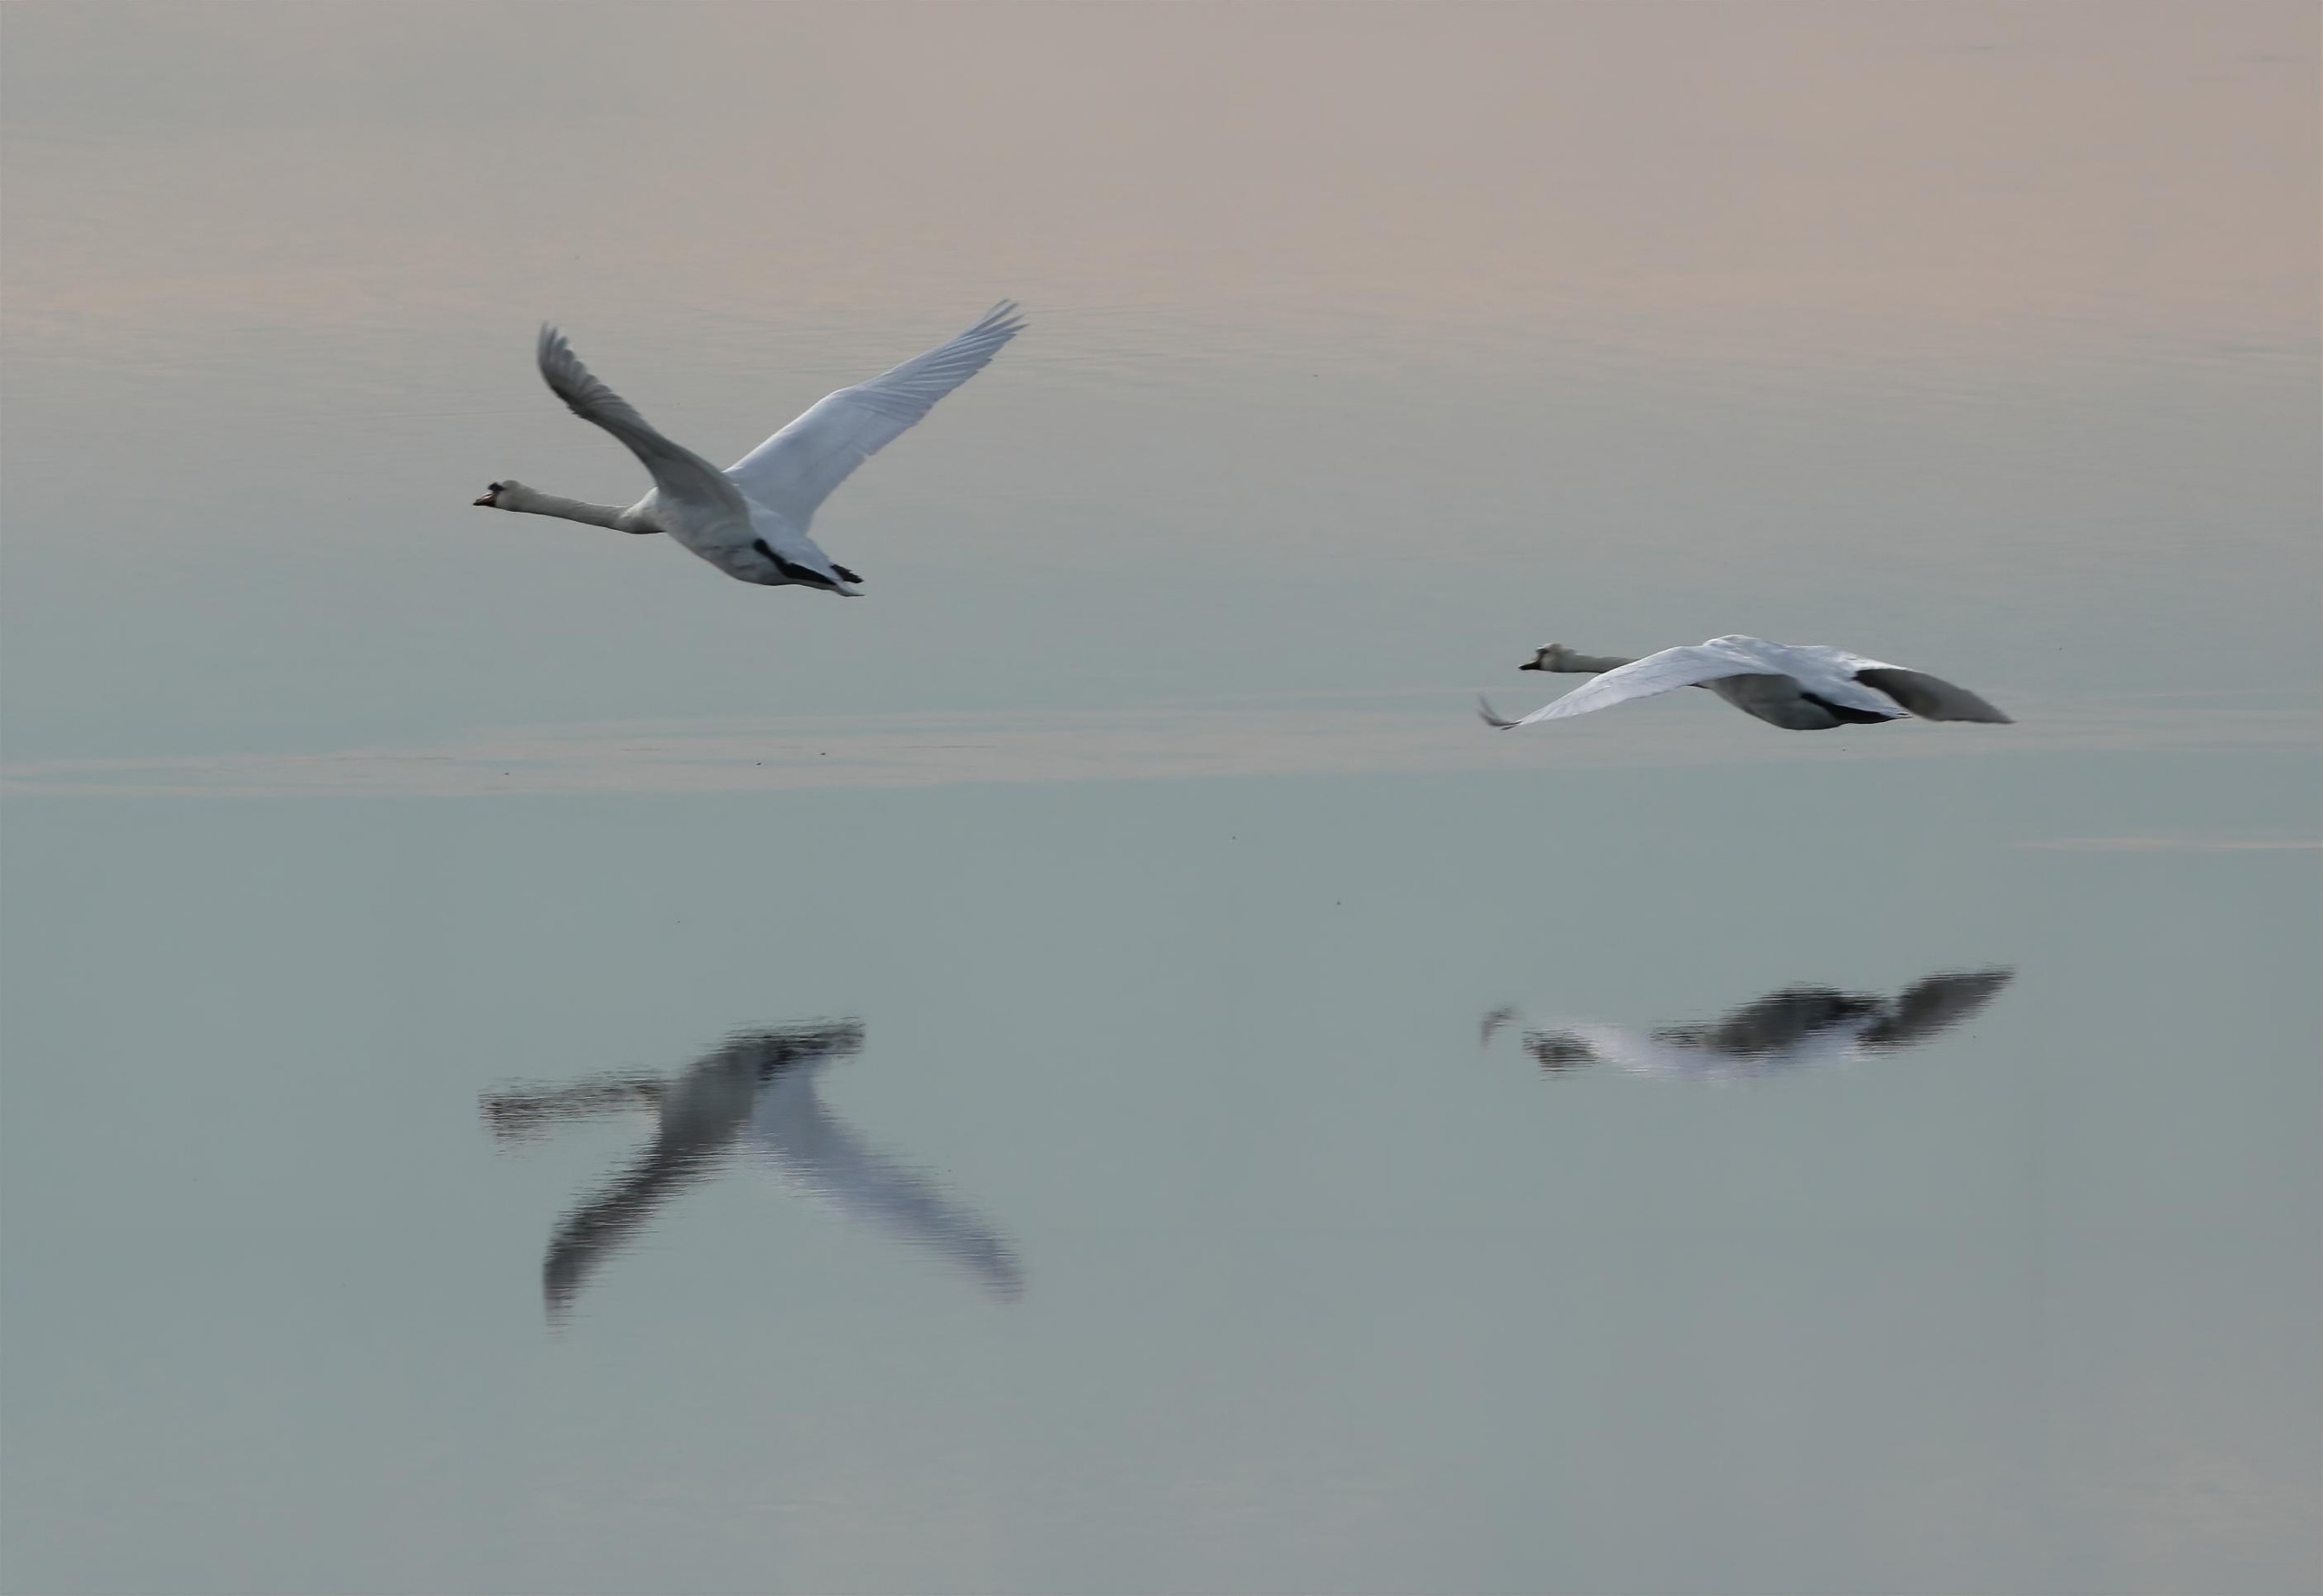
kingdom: Animalia
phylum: Chordata
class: Aves
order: Anseriformes
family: Anatidae
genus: Cygnus
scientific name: Cygnus olor
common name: Knopsvane
